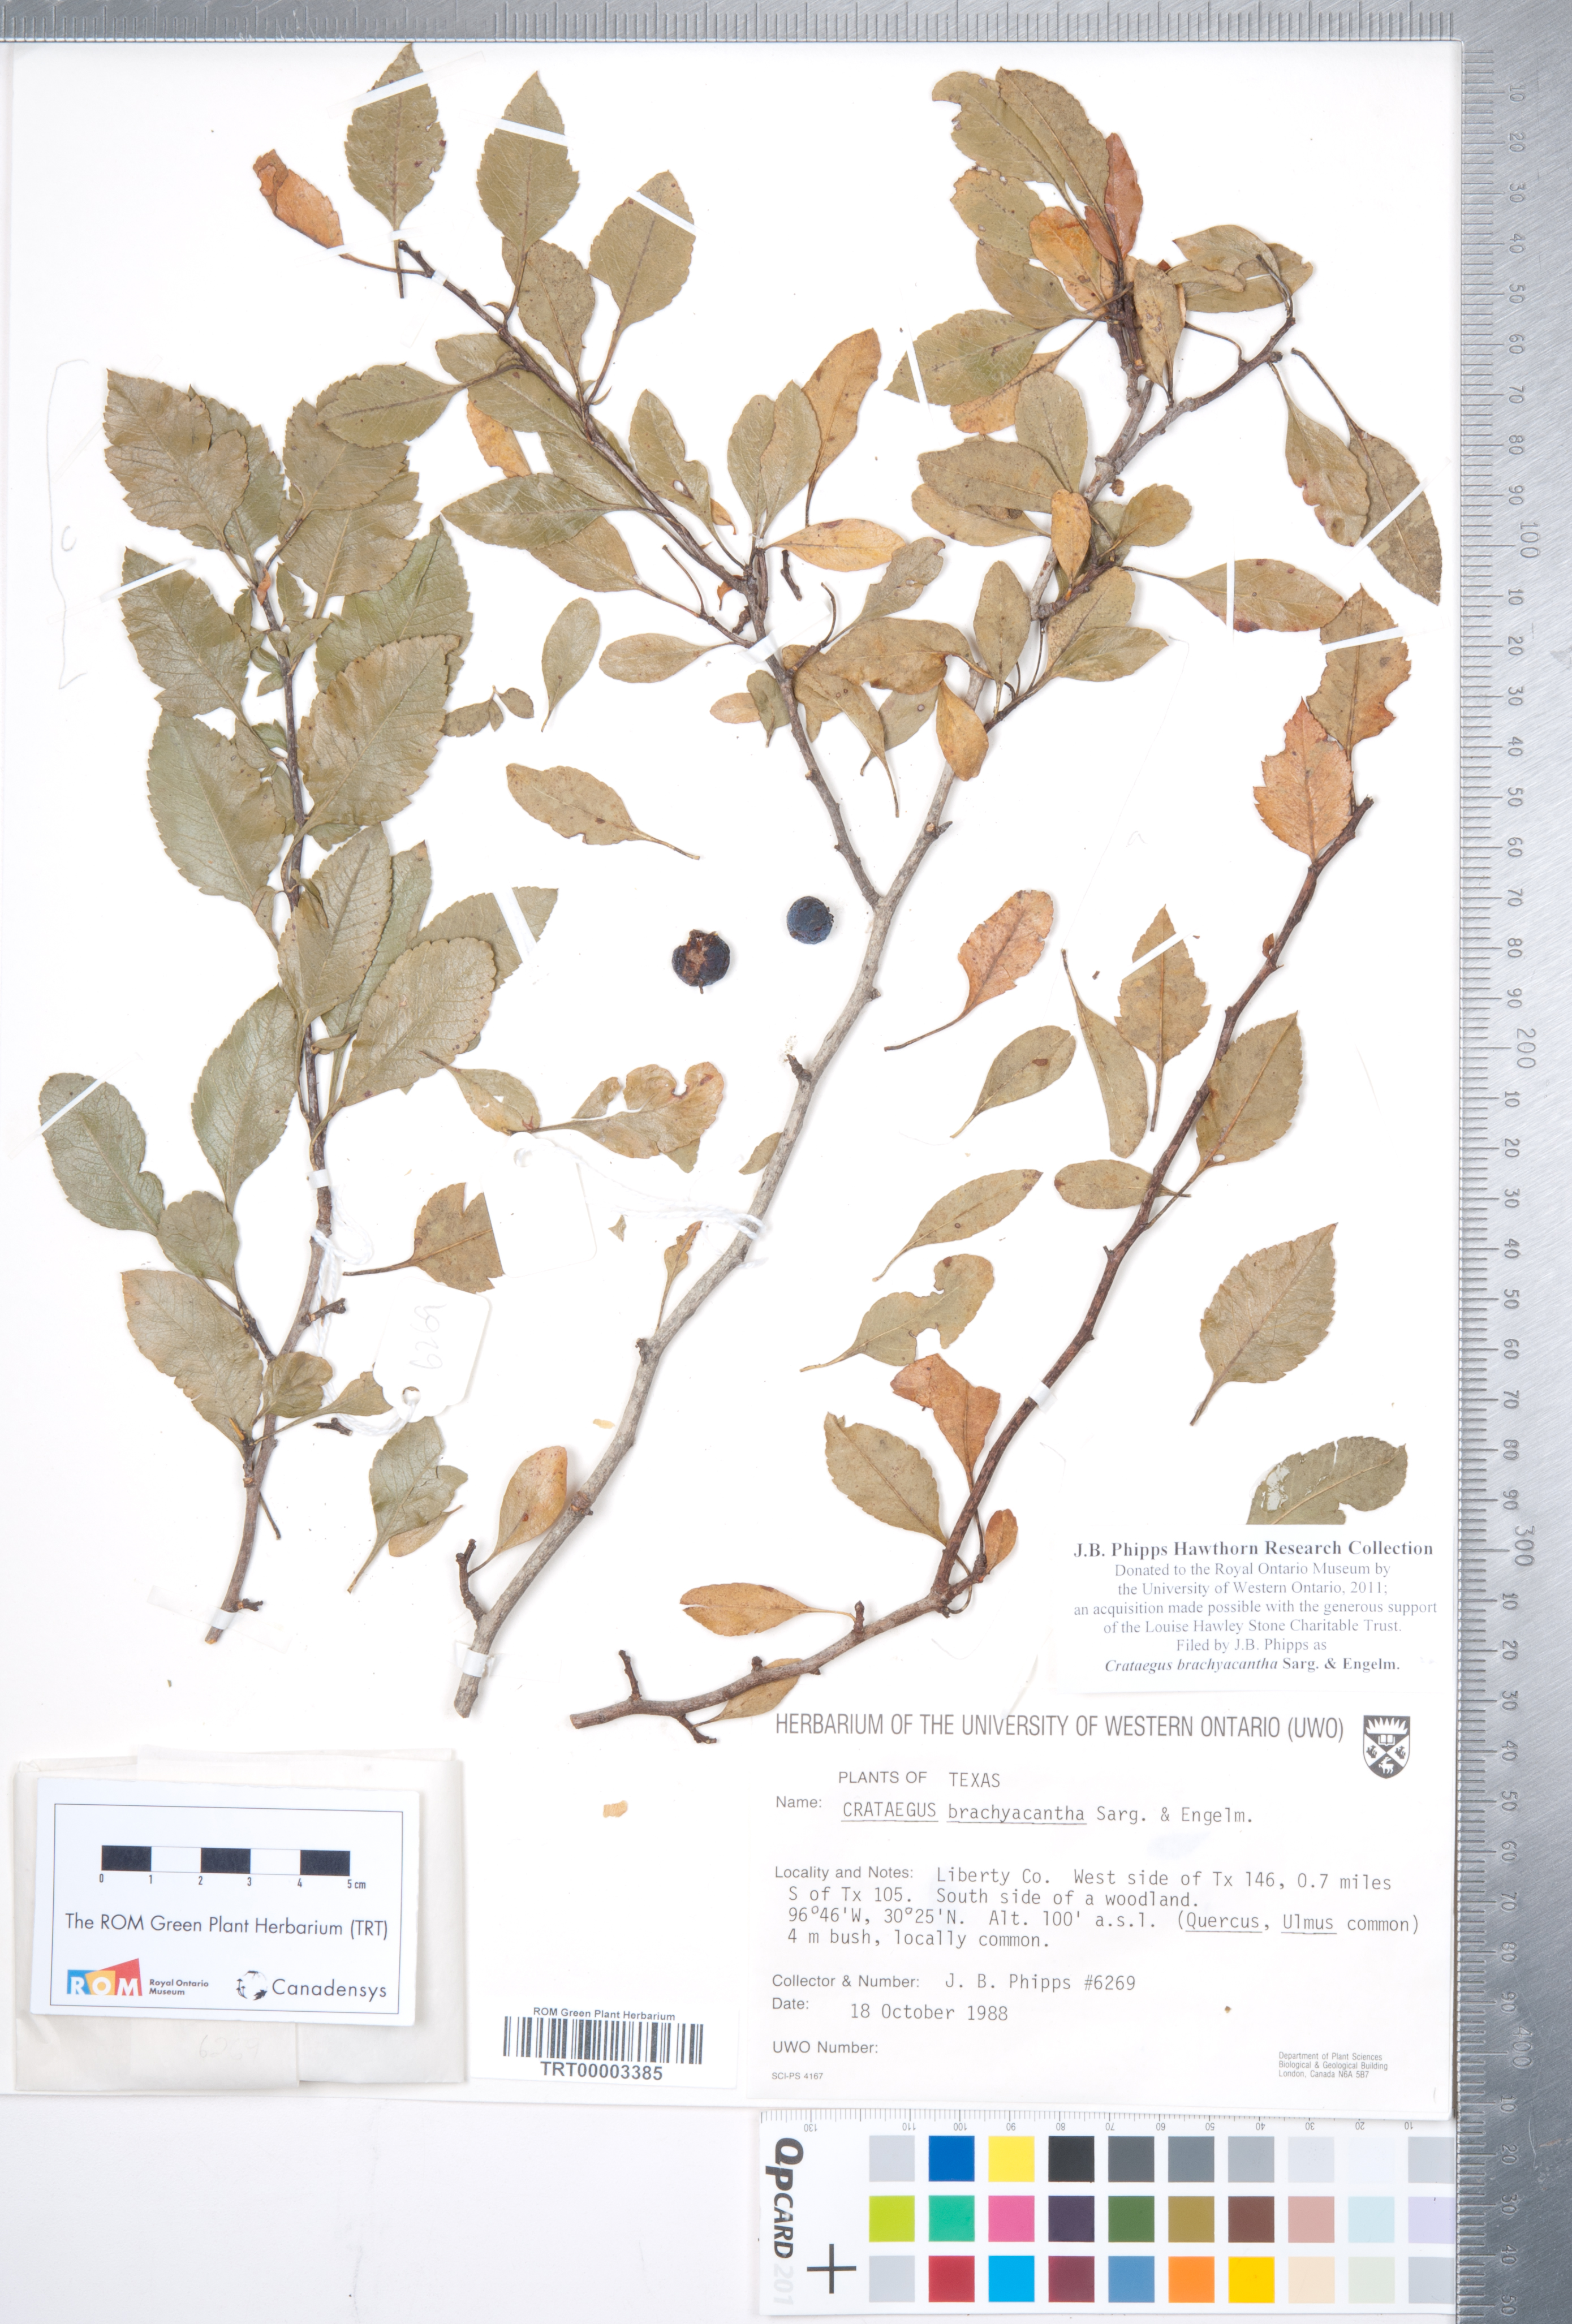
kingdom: Plantae
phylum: Tracheophyta
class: Magnoliopsida
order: Rosales
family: Rosaceae
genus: Crataegus
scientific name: Crataegus brachyacantha
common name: Blueberry-hawthorn
